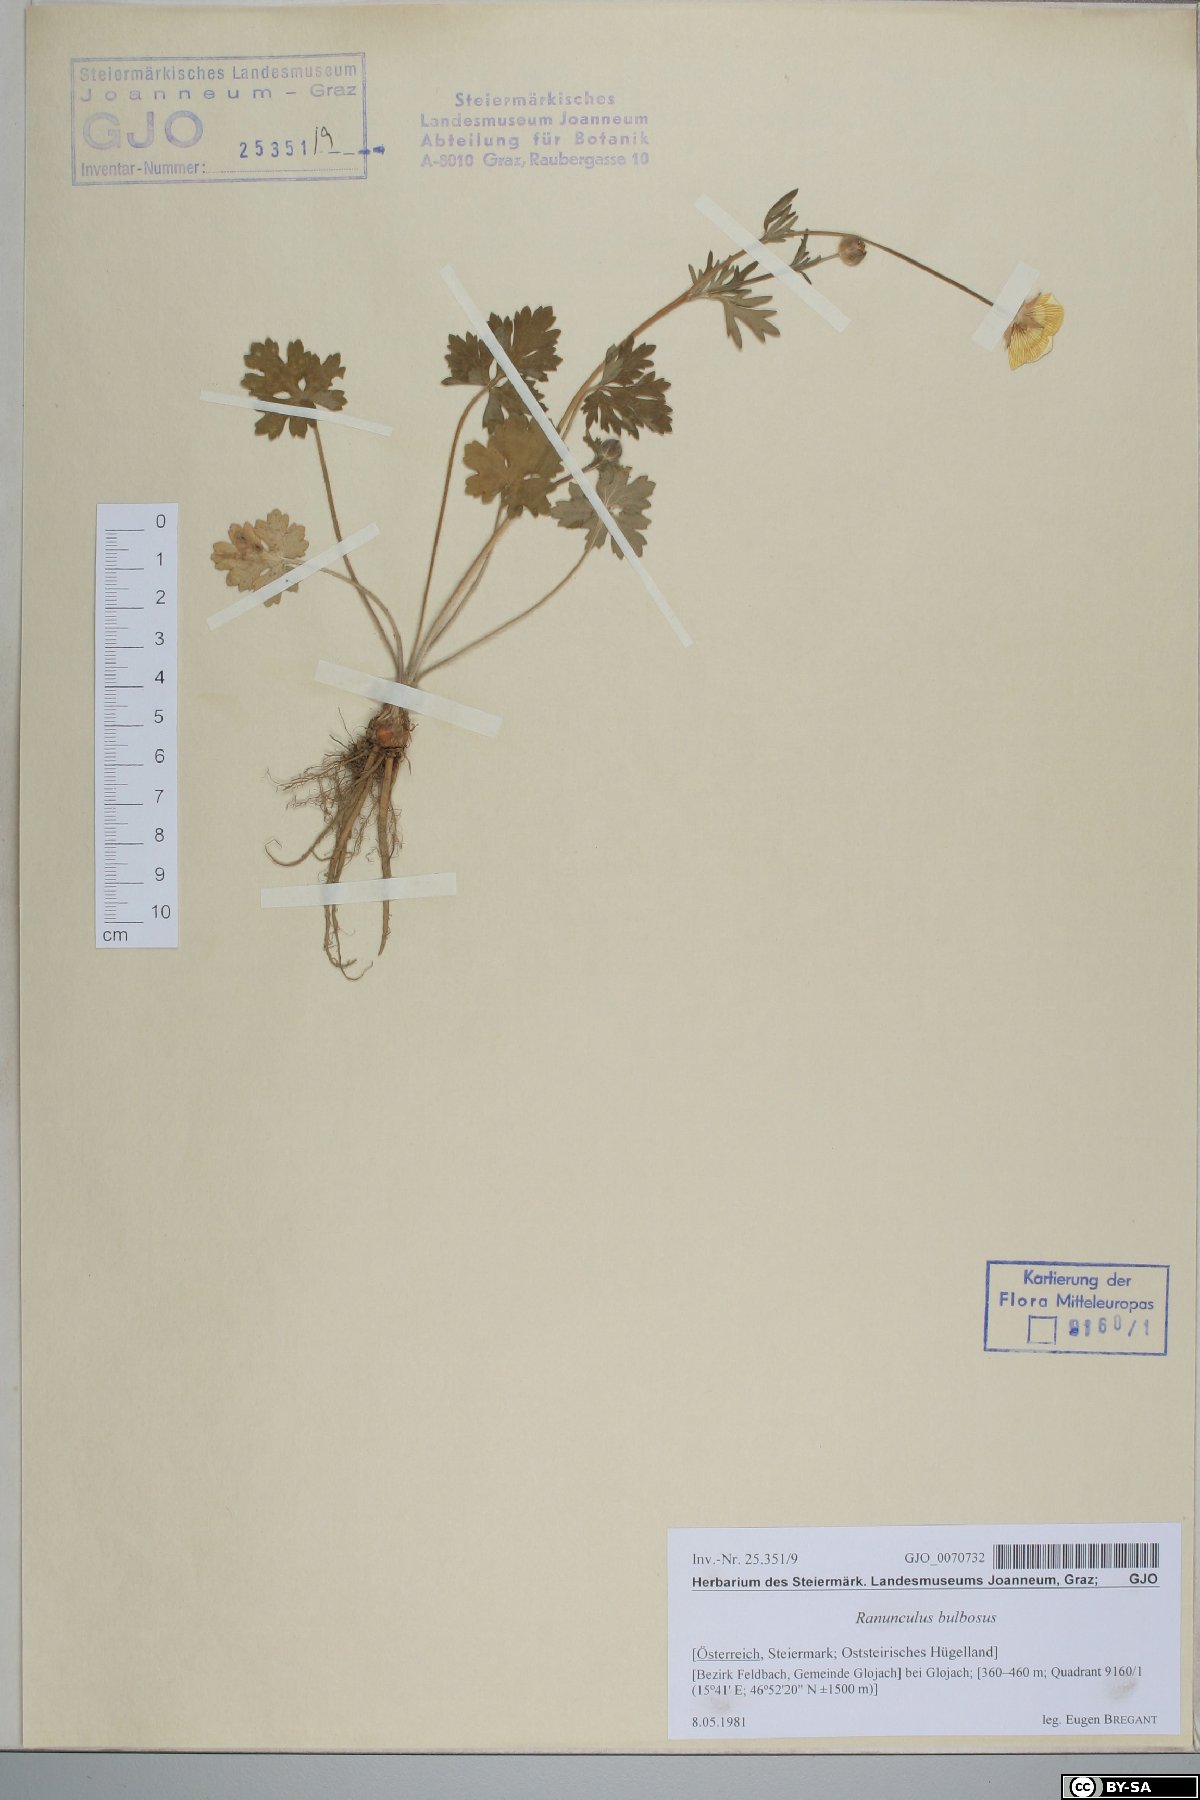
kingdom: Plantae
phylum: Tracheophyta
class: Magnoliopsida
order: Ranunculales
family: Ranunculaceae
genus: Ranunculus
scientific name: Ranunculus bulbosus
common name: Bulbous buttercup
